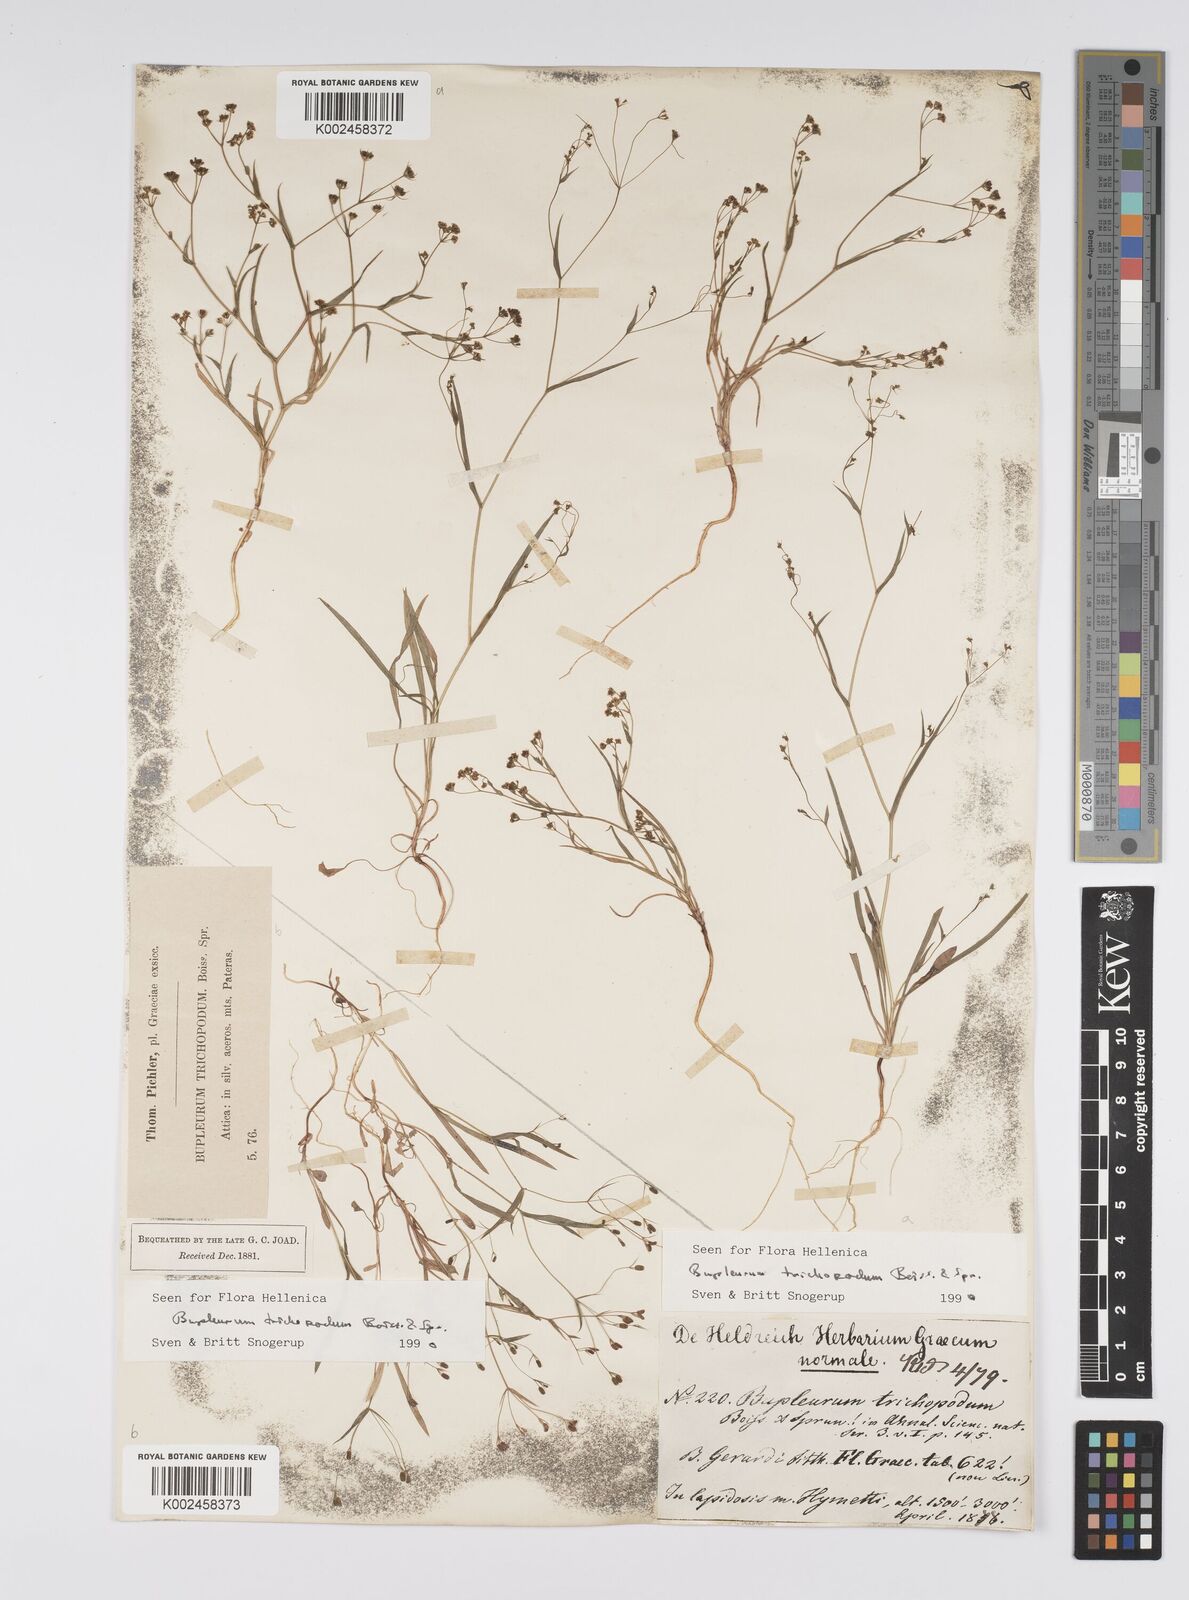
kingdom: Plantae
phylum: Tracheophyta
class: Magnoliopsida
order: Apiales
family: Apiaceae
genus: Bupleurum
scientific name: Bupleurum trichopodum
